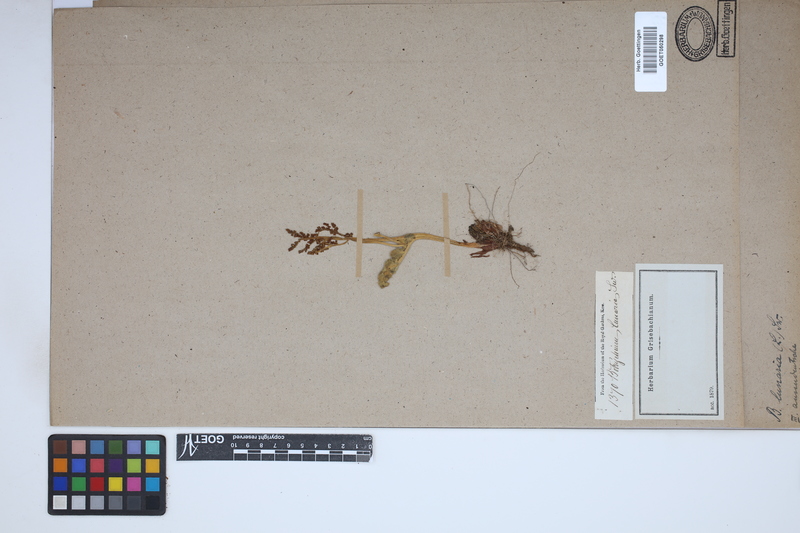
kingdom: Plantae
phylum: Tracheophyta
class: Polypodiopsida
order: Ophioglossales
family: Ophioglossaceae
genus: Botrychium
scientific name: Botrychium lunaria
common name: Moonwort
